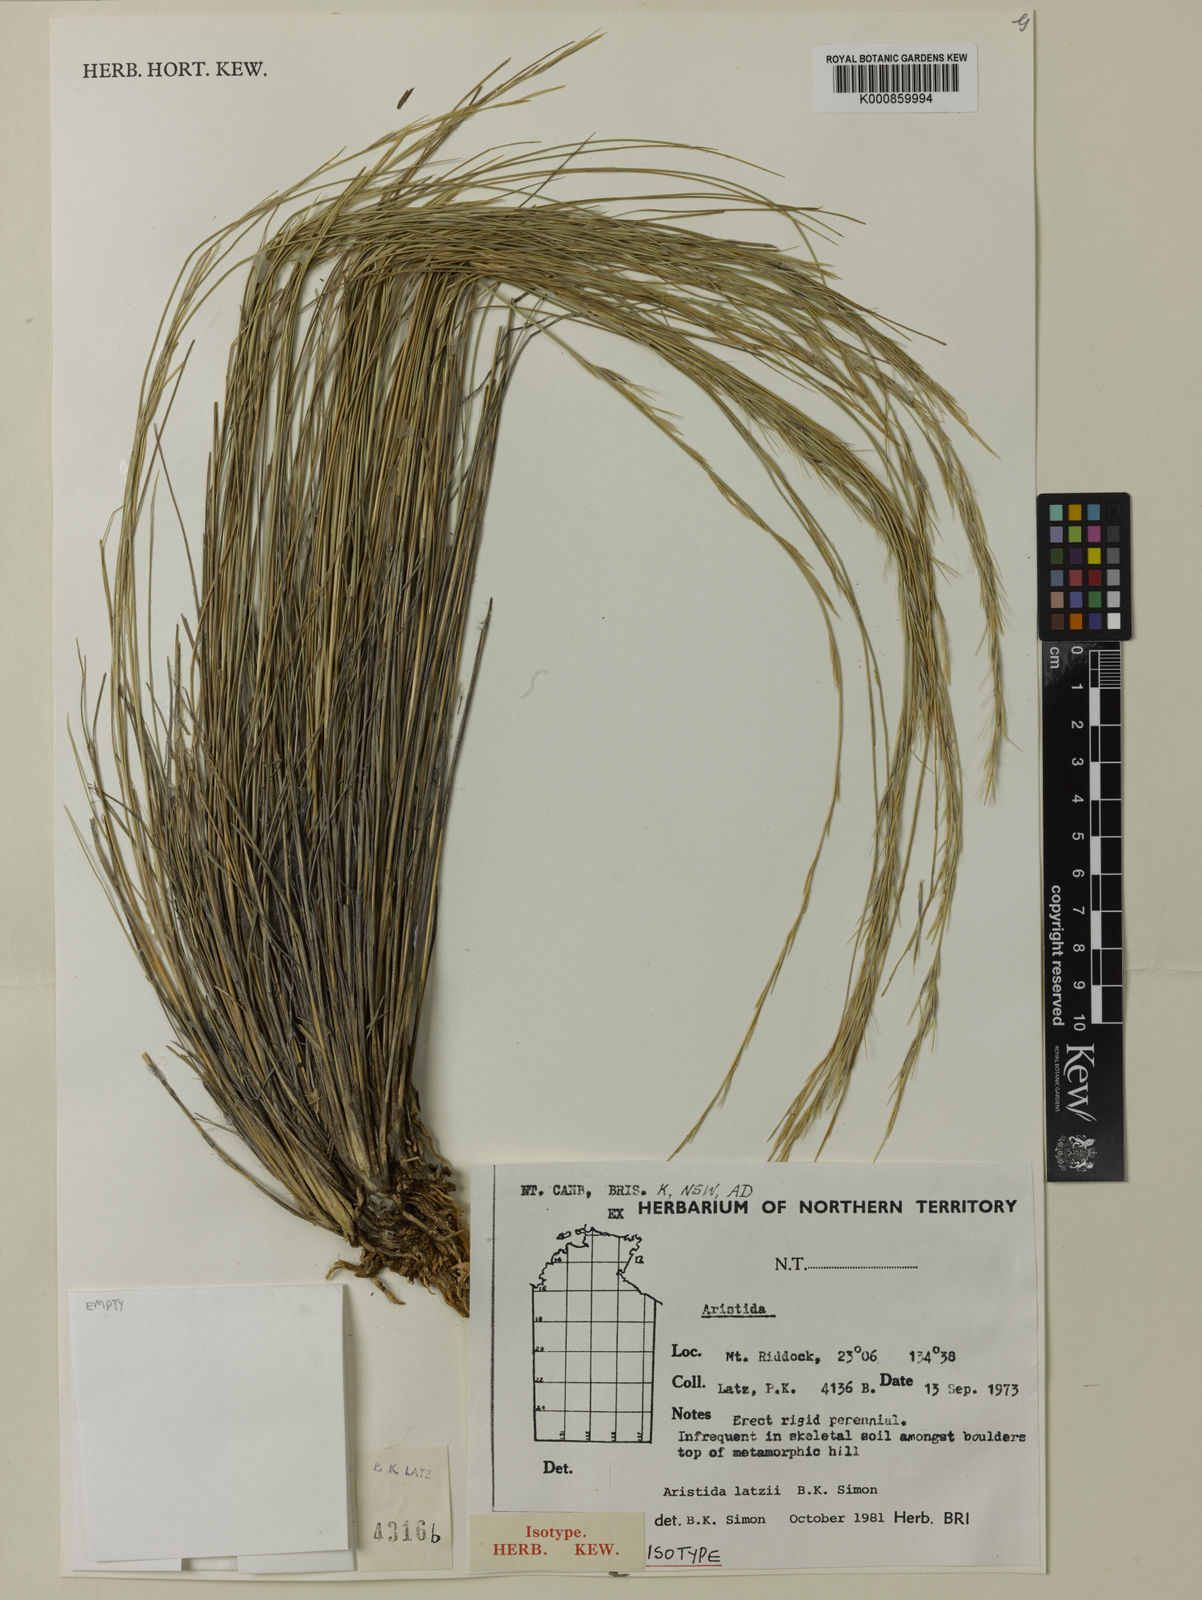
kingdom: Plantae
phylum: Tracheophyta
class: Liliopsida
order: Poales
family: Poaceae
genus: Aristida
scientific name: Aristida latzii
